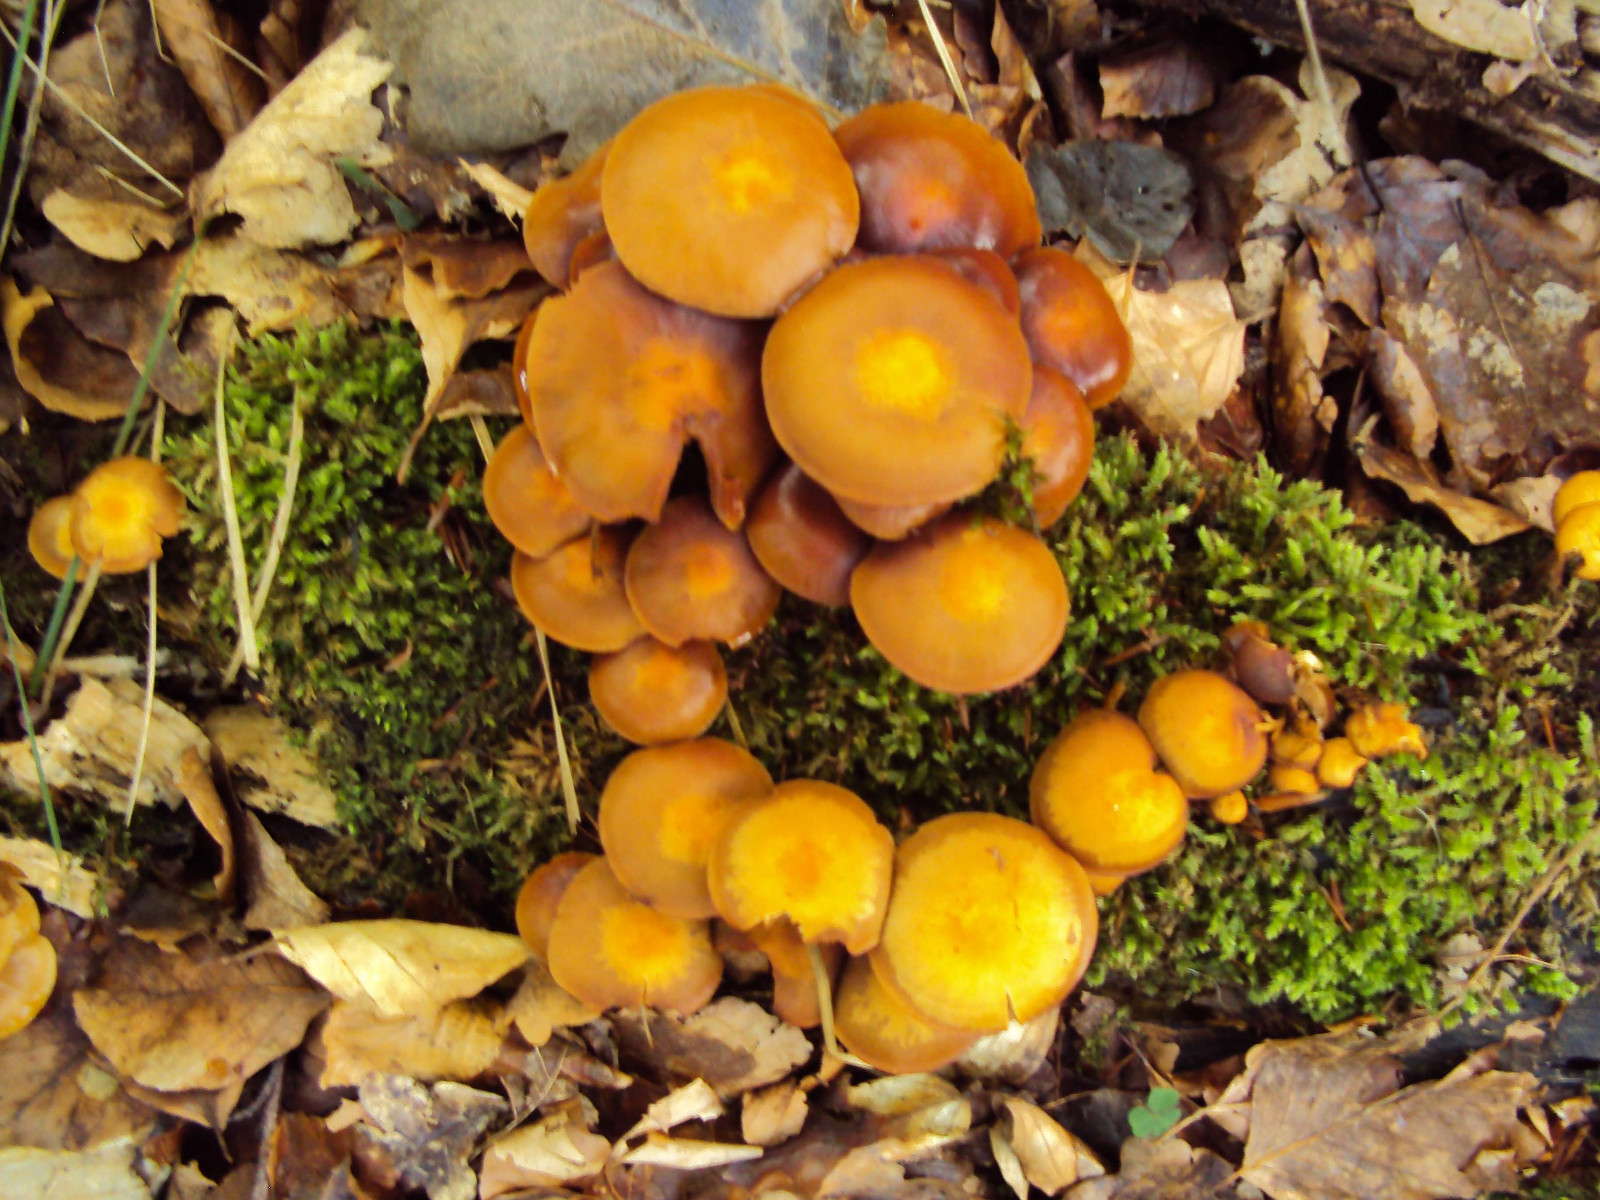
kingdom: Fungi
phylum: Basidiomycota
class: Agaricomycetes
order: Agaricales
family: Strophariaceae
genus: Kuehneromyces
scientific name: Kuehneromyces mutabilis
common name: foranderlig skælhat
